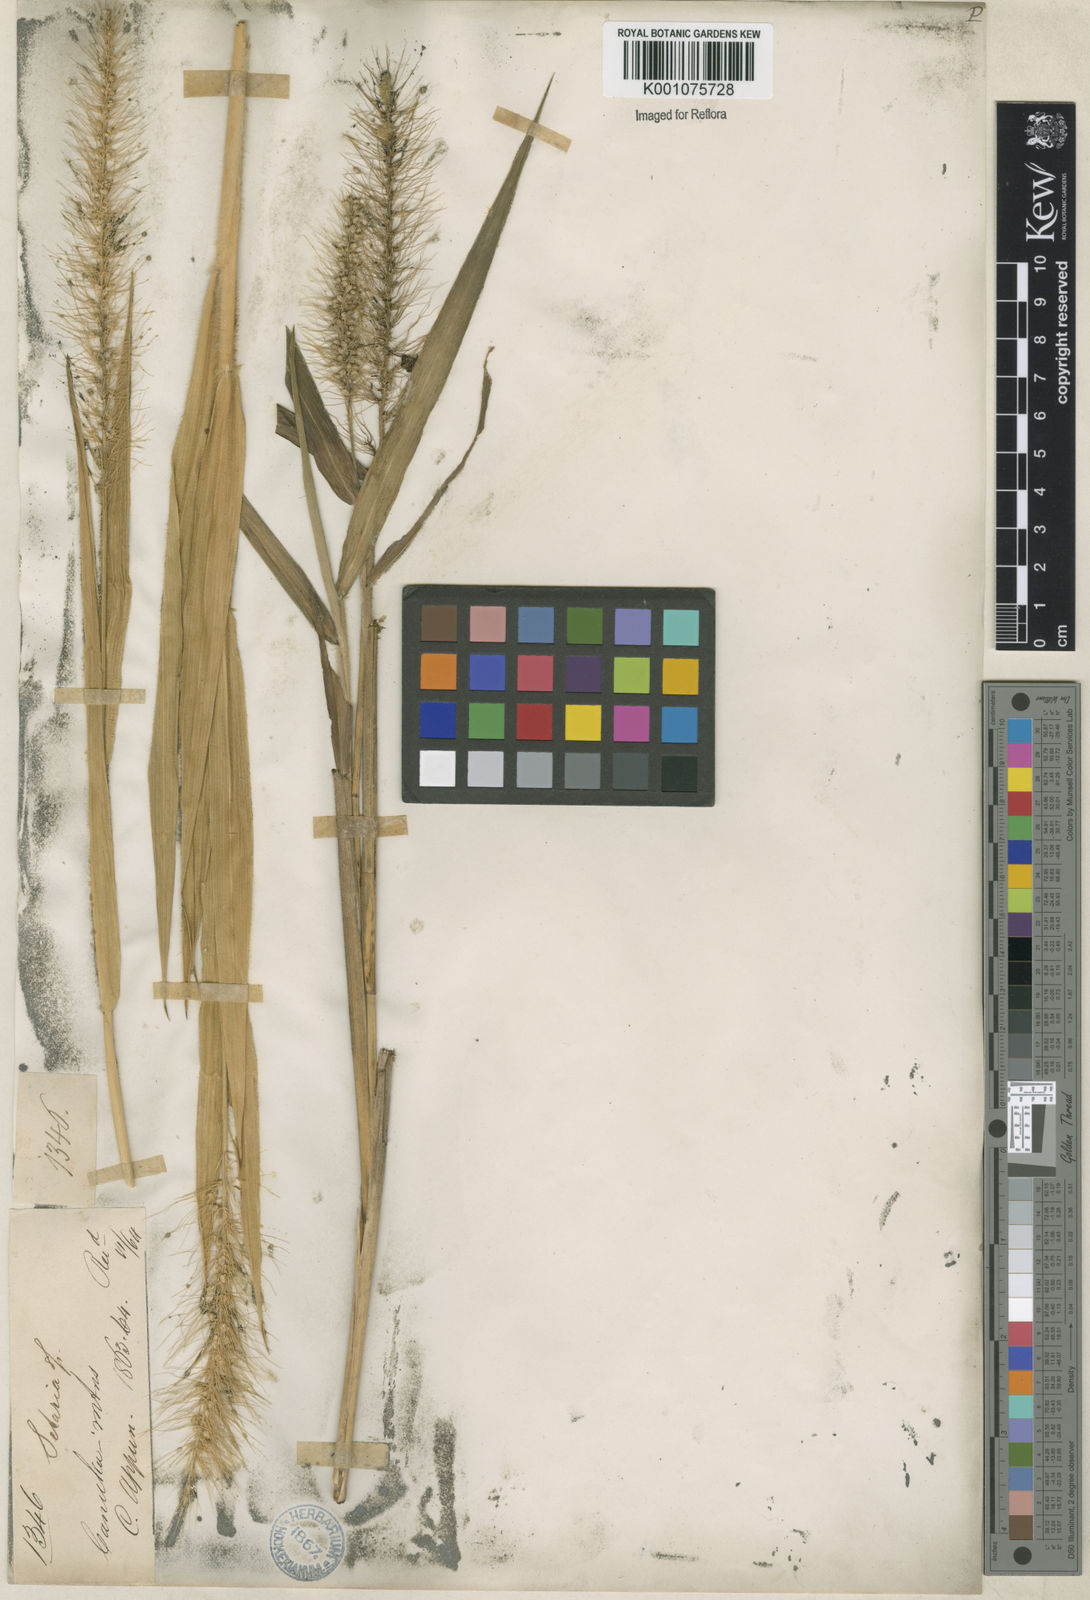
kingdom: Plantae
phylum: Tracheophyta
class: Liliopsida
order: Poales
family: Poaceae
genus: Setaria
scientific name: Setaria tenax
